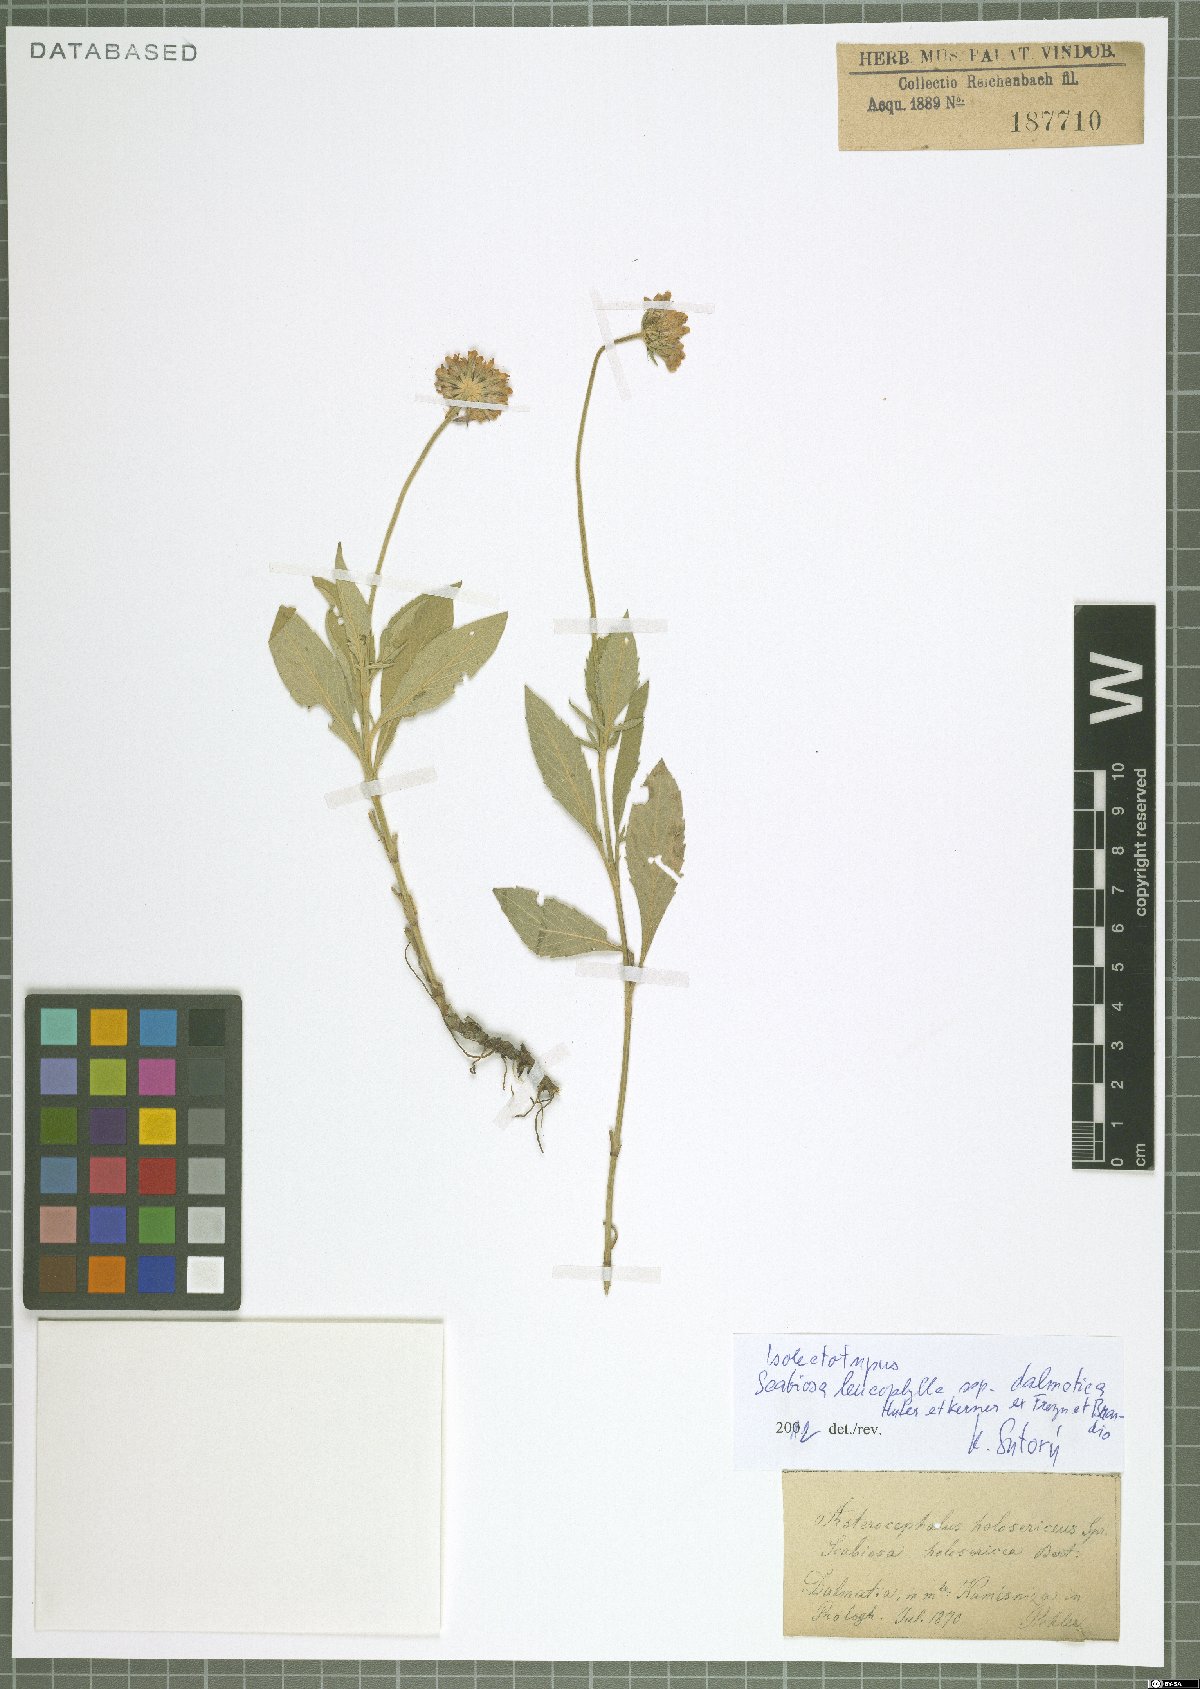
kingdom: Plantae
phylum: Tracheophyta
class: Magnoliopsida
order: Dipsacales
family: Caprifoliaceae
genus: Scabiosa
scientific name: Scabiosa cinerea
